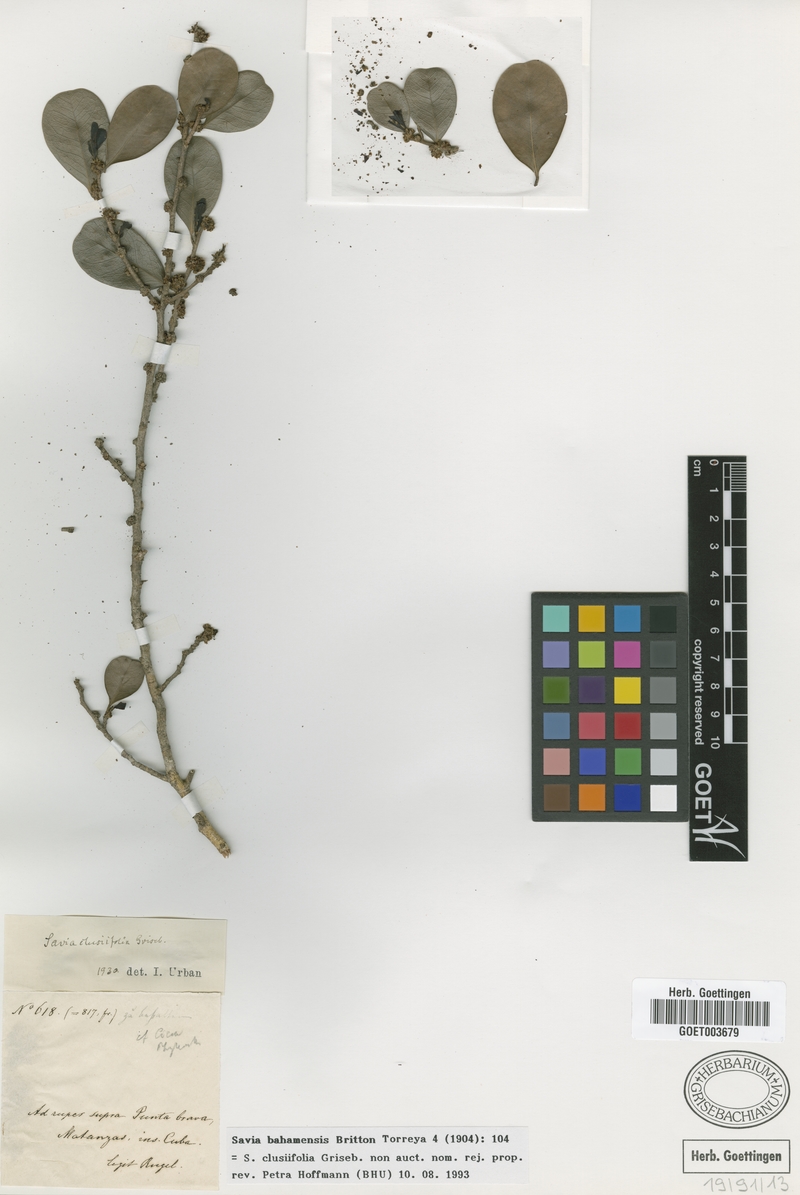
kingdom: Plantae
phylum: Tracheophyta
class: Magnoliopsida
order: Malpighiales
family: Phyllanthaceae
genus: Heterosavia
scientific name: Heterosavia bahamensis
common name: Bahama maidenbush
